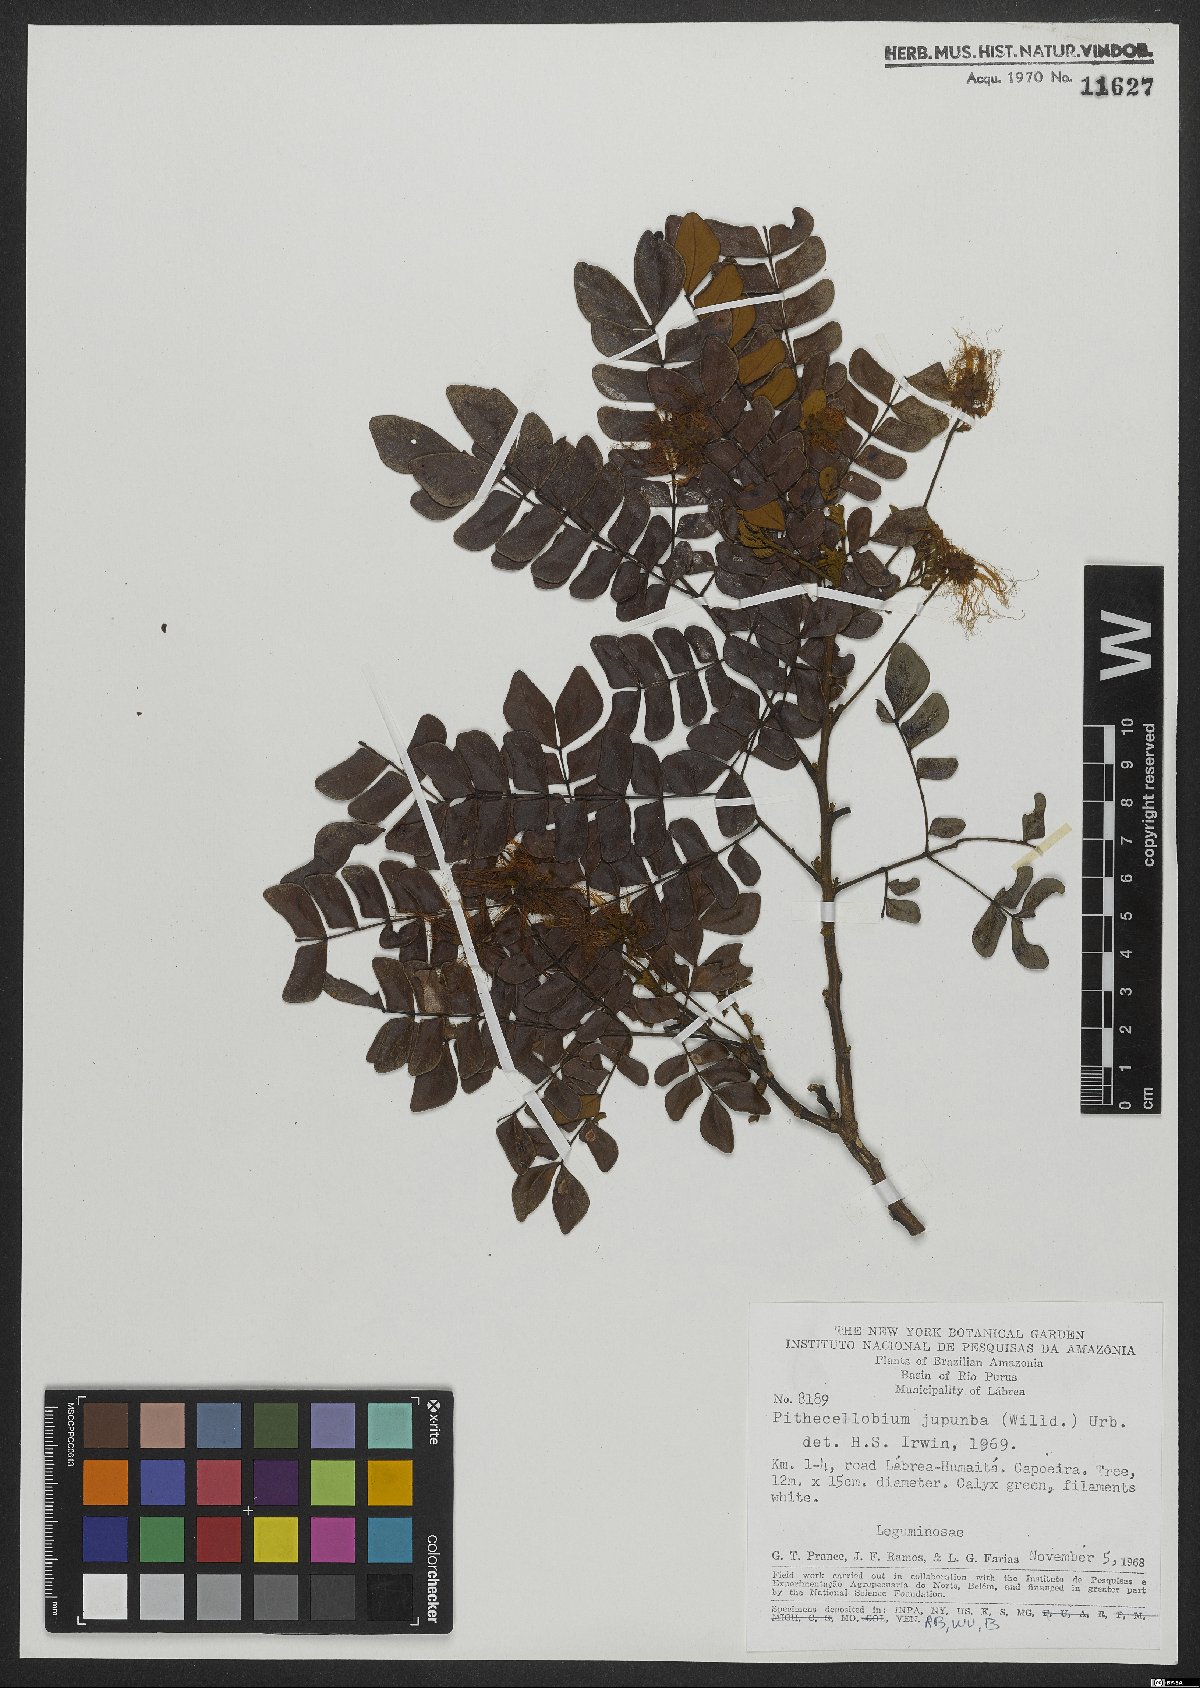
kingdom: Plantae
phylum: Tracheophyta
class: Magnoliopsida
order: Fabales
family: Fabaceae
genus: Jupunba
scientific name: Jupunba trapezifolia
